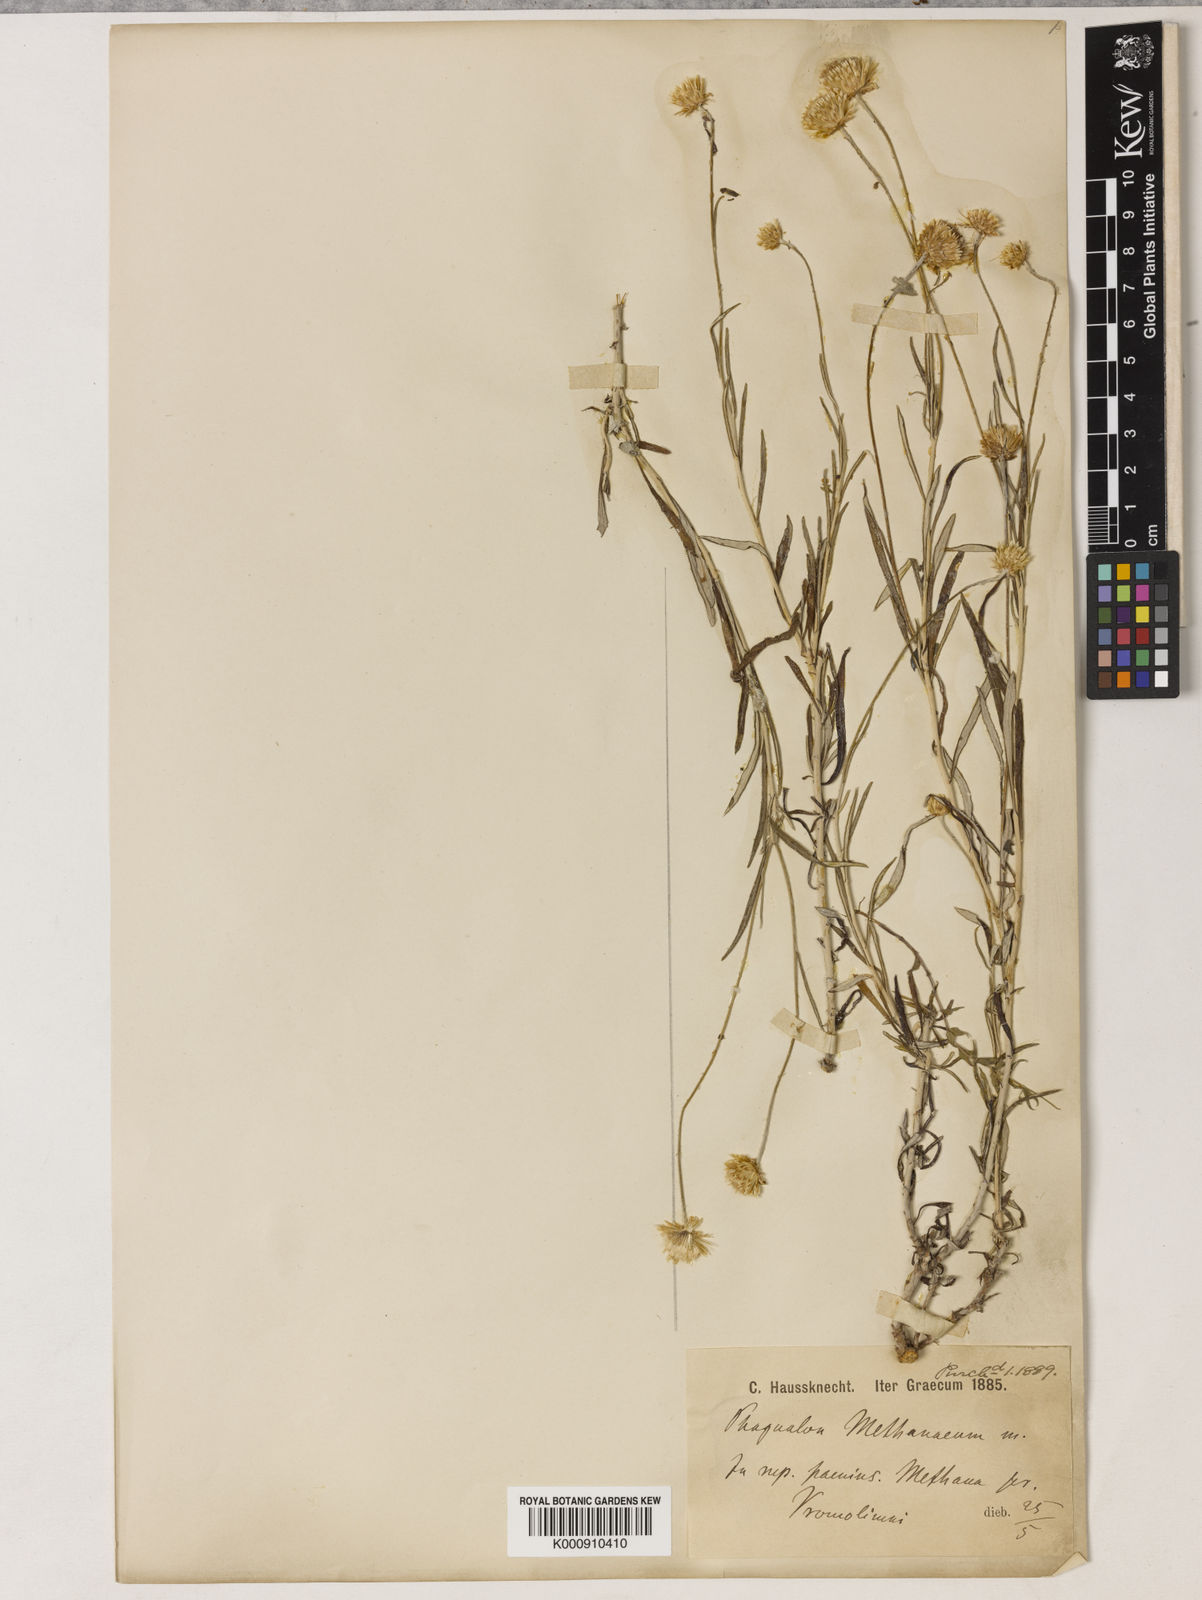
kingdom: Plantae
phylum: Tracheophyta
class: Magnoliopsida
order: Asterales
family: Asteraceae
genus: Phagnalon
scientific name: Phagnalon saxatile
